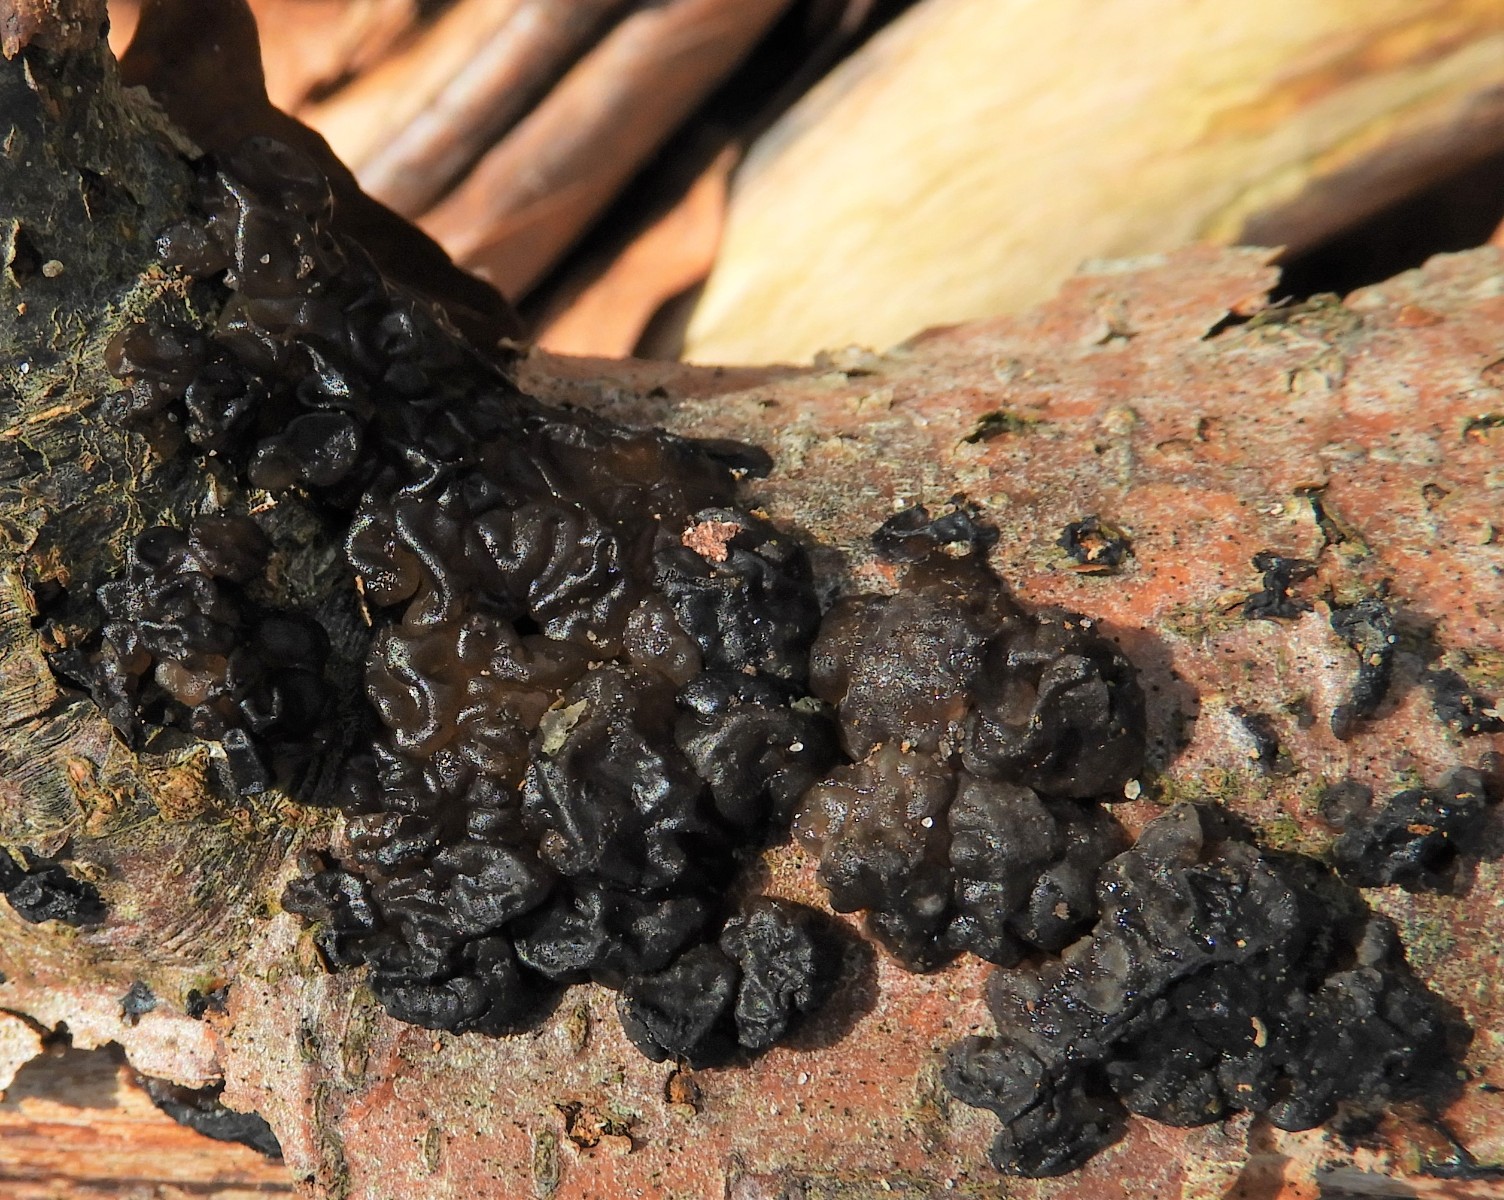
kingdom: Fungi
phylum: Basidiomycota
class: Agaricomycetes
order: Auriculariales
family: Auriculariaceae
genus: Exidia
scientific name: Exidia nigricans
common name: almindelig bævretop
